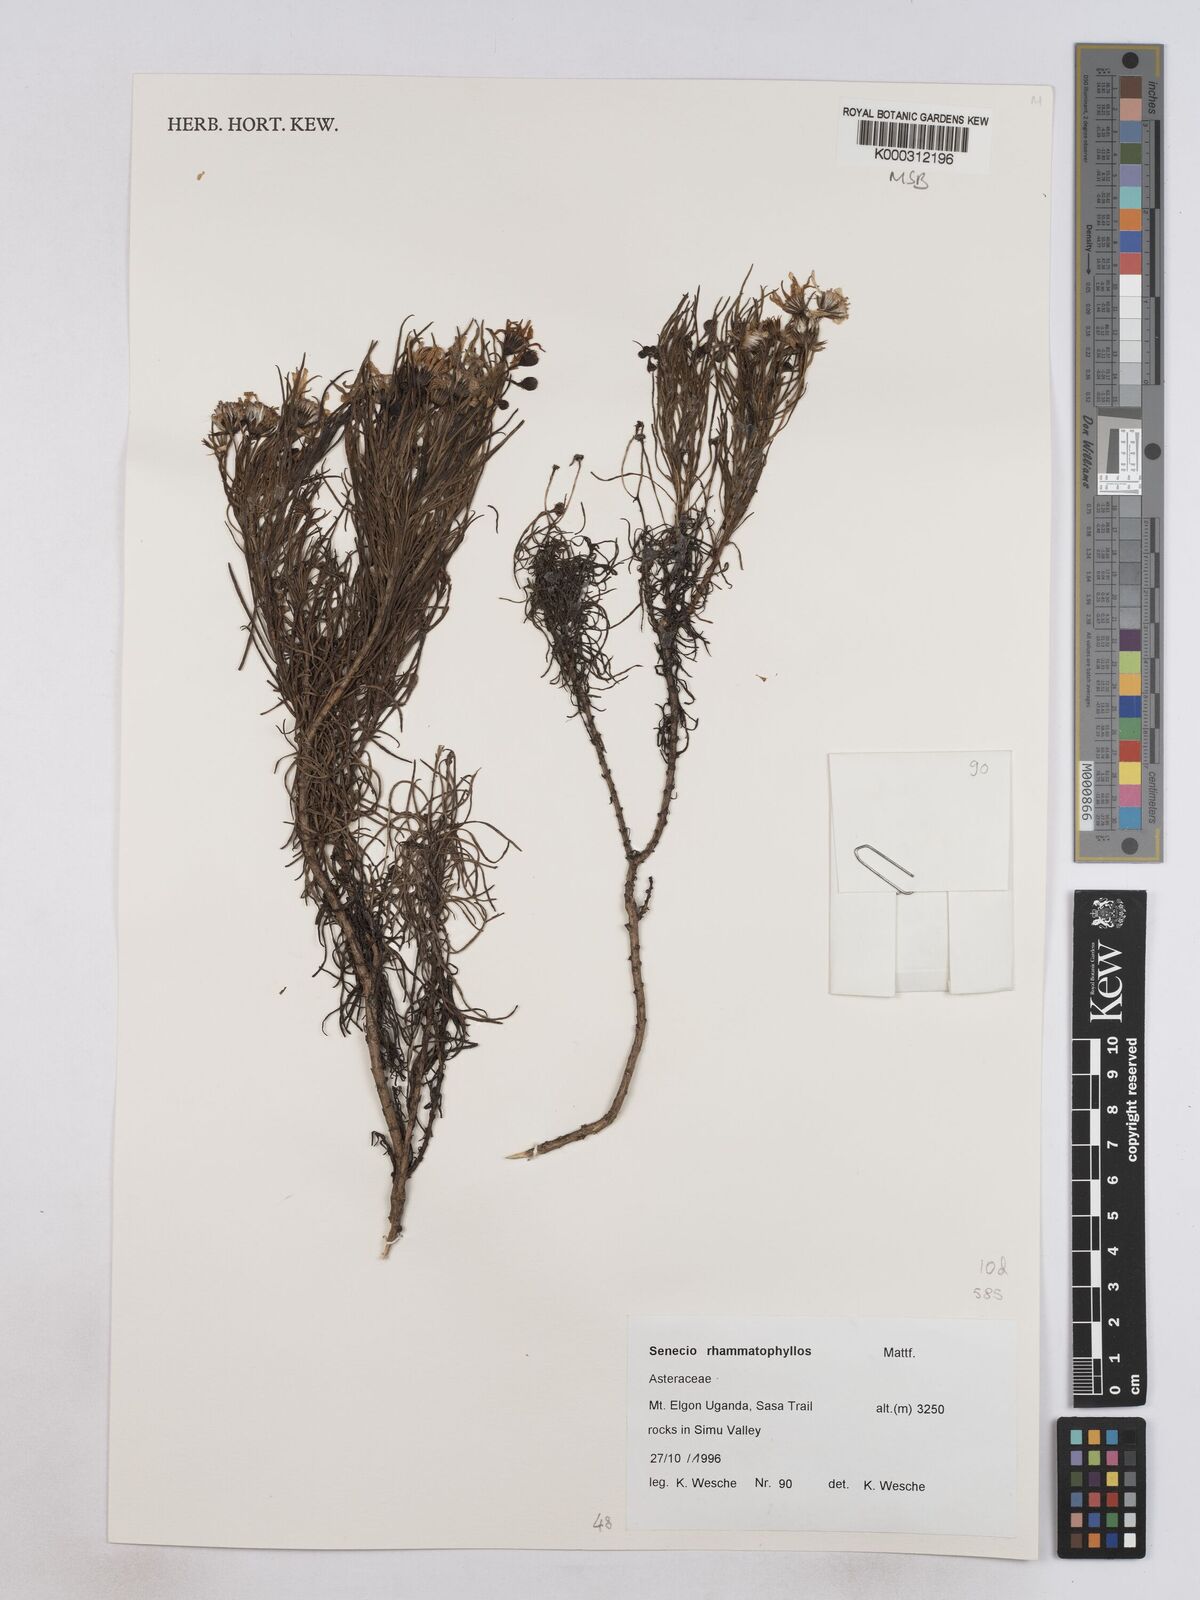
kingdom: Plantae
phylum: Tracheophyta
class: Magnoliopsida
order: Asterales
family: Asteraceae
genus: Senecio
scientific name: Senecio rhammatophyllus
